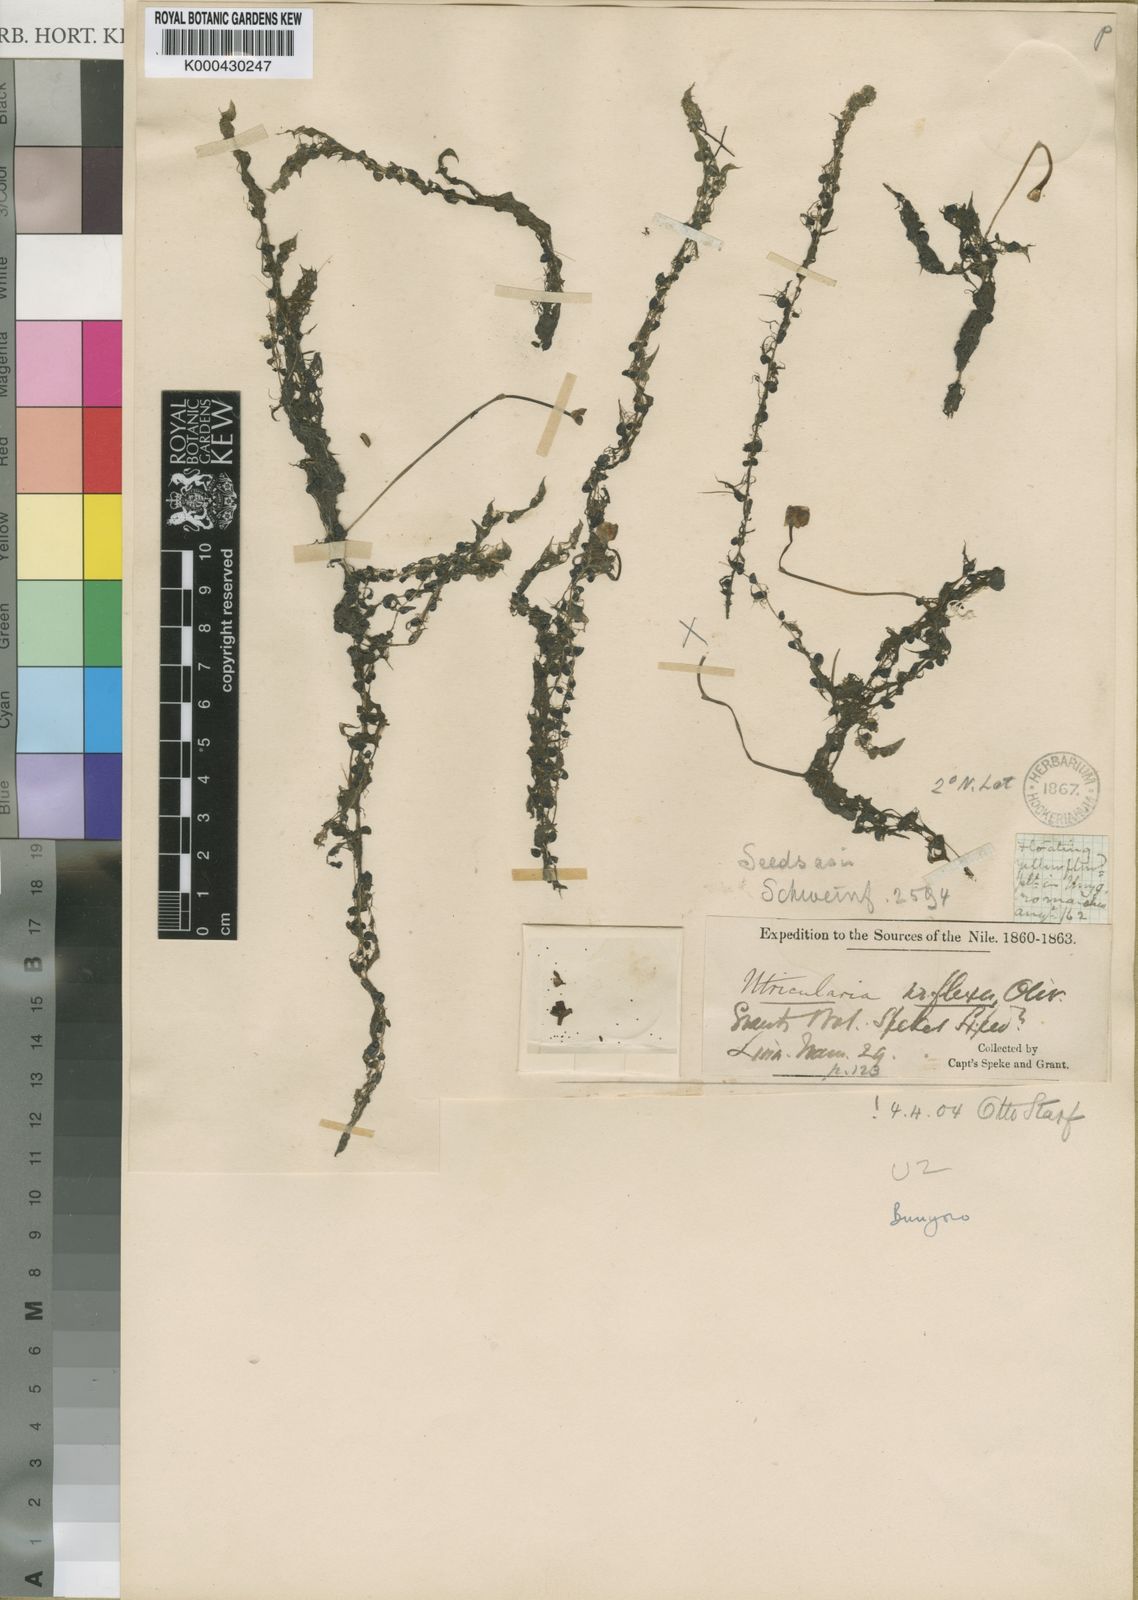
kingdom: Plantae
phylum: Tracheophyta
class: Magnoliopsida
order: Lamiales
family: Lentibulariaceae
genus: Utricularia
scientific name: Utricularia reflexa
